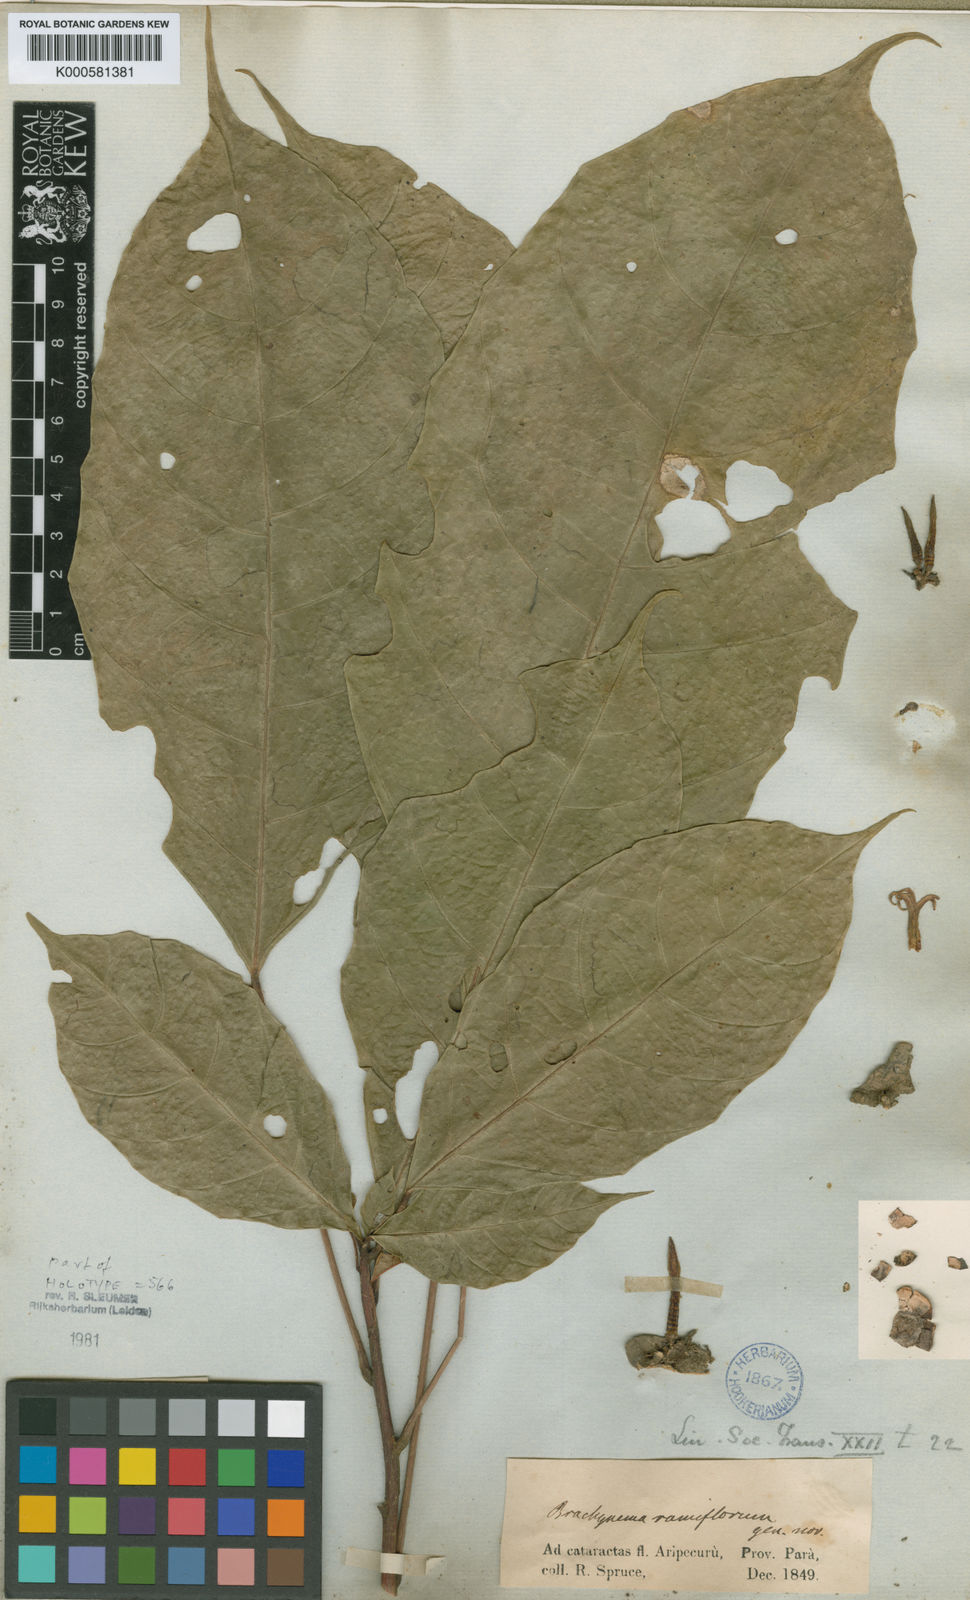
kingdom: Plantae
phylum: Tracheophyta
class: Magnoliopsida
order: Santalales
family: Erythropalaceae
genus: Brachynema
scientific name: Brachynema ramiflorum
